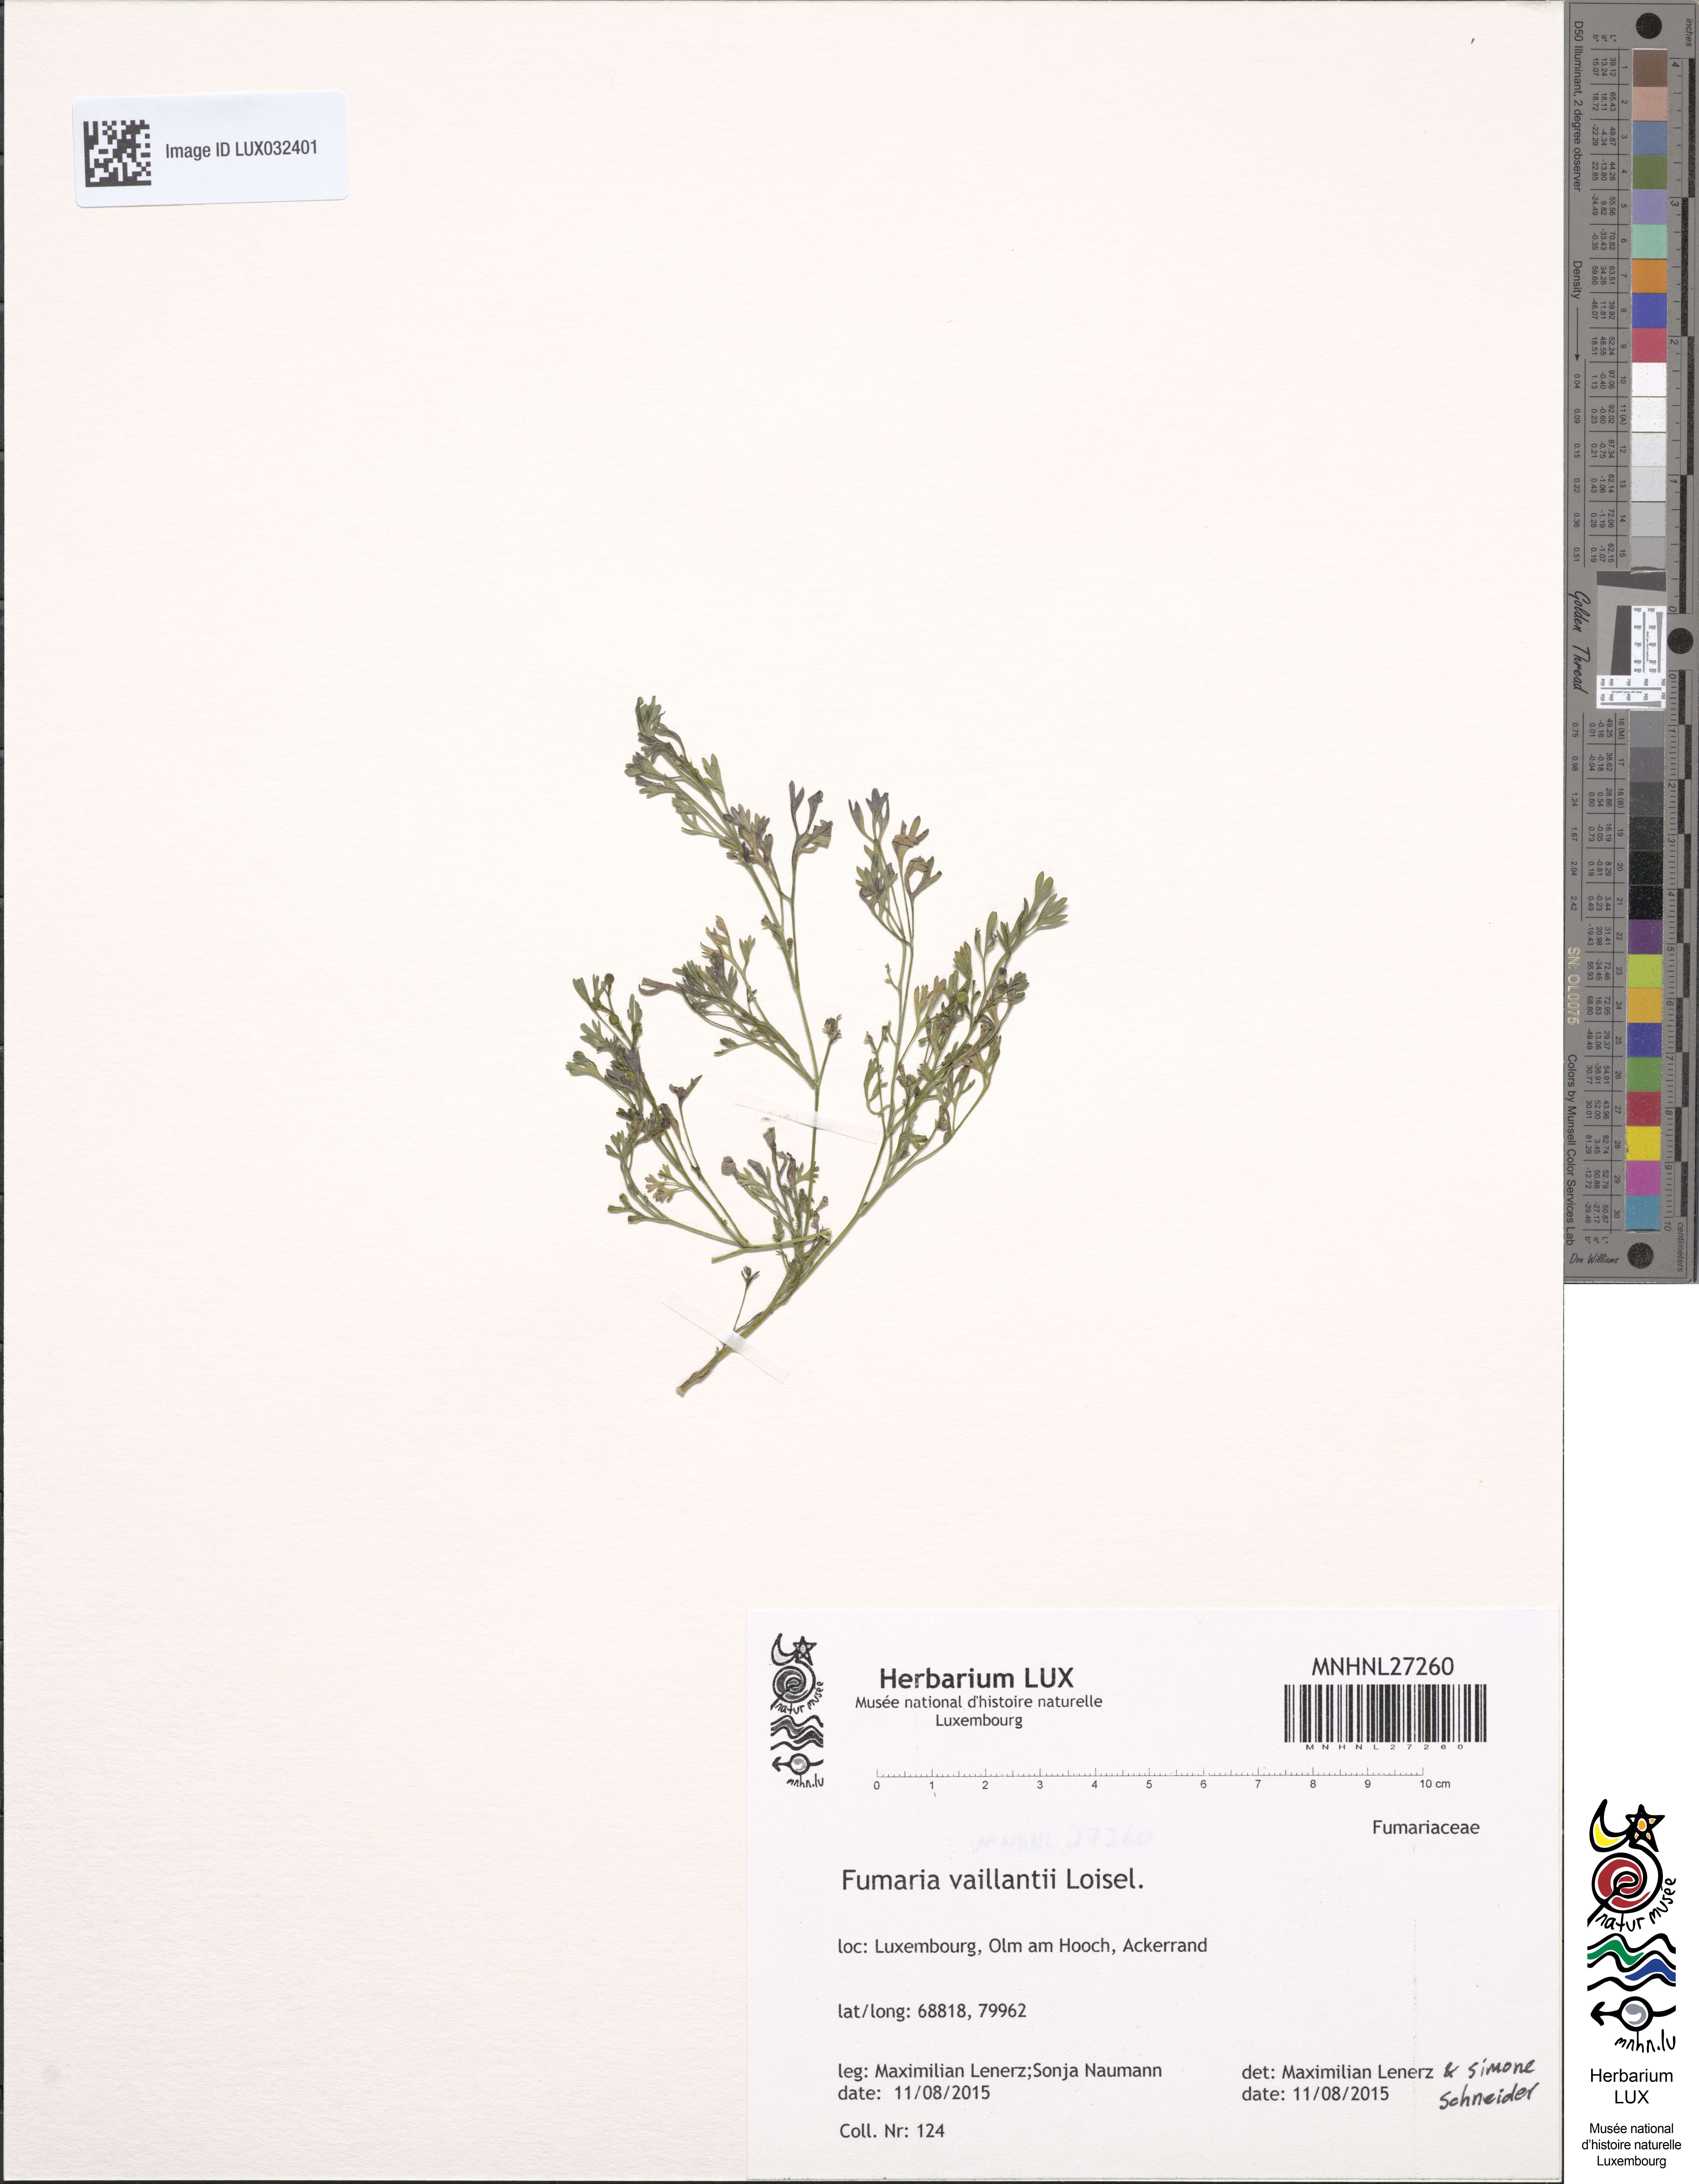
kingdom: Plantae
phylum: Tracheophyta
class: Magnoliopsida
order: Ranunculales
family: Papaveraceae
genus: Fumaria
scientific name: Fumaria vaillantii
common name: Few-flowered fumitory
